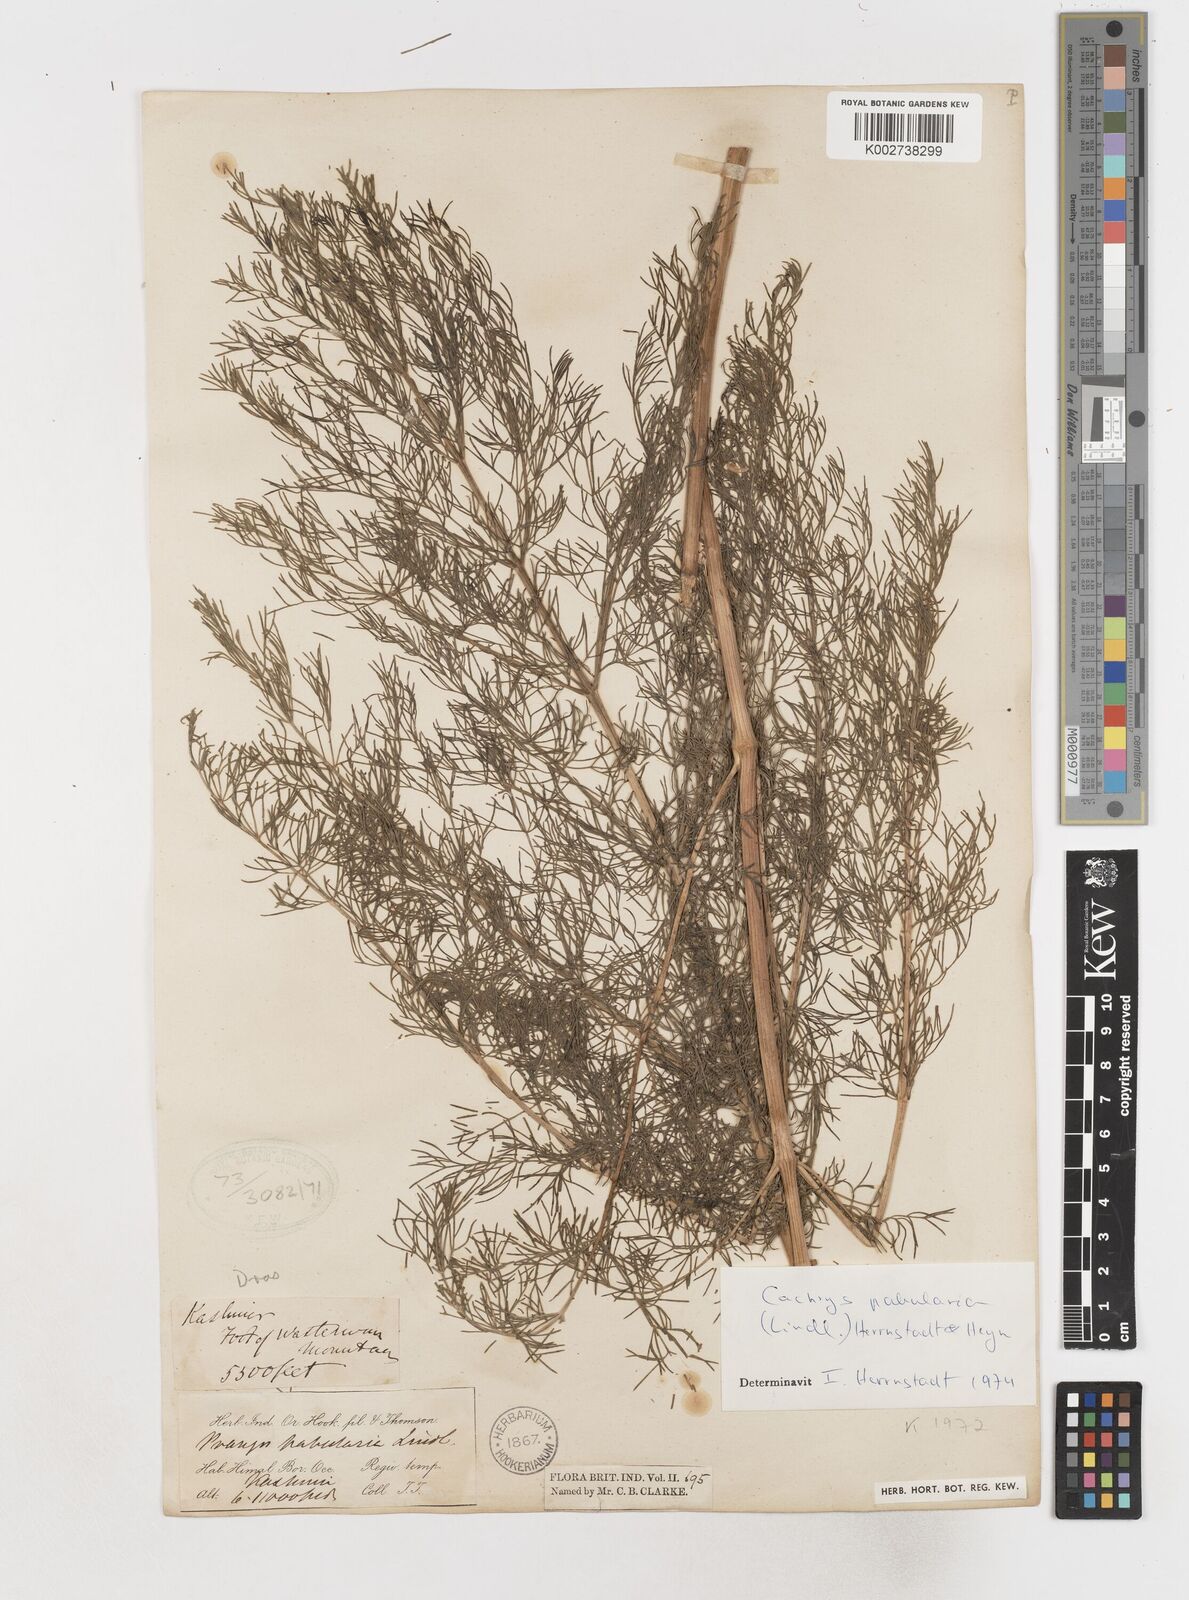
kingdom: Plantae
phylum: Tracheophyta
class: Magnoliopsida
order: Apiales
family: Apiaceae
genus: Prangos
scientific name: Prangos
